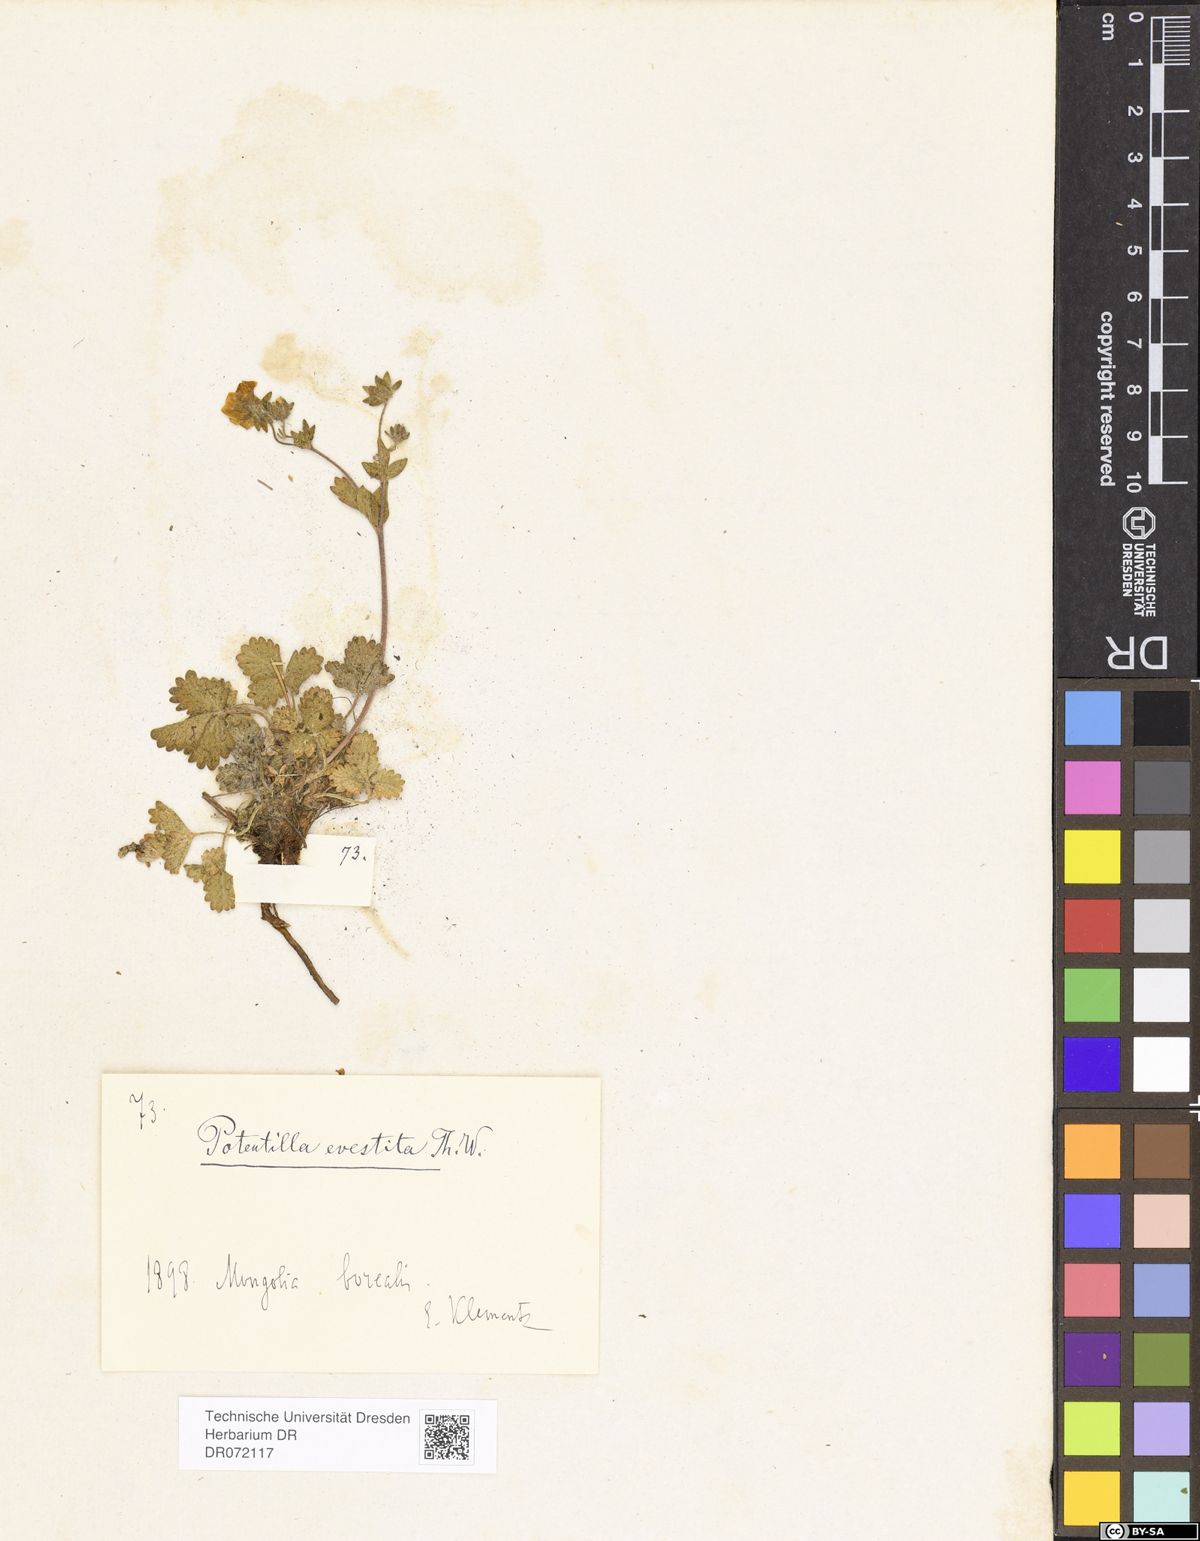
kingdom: Plantae
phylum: Tracheophyta
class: Magnoliopsida
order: Rosales
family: Rosaceae
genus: Potentilla
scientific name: Potentilla evestita
